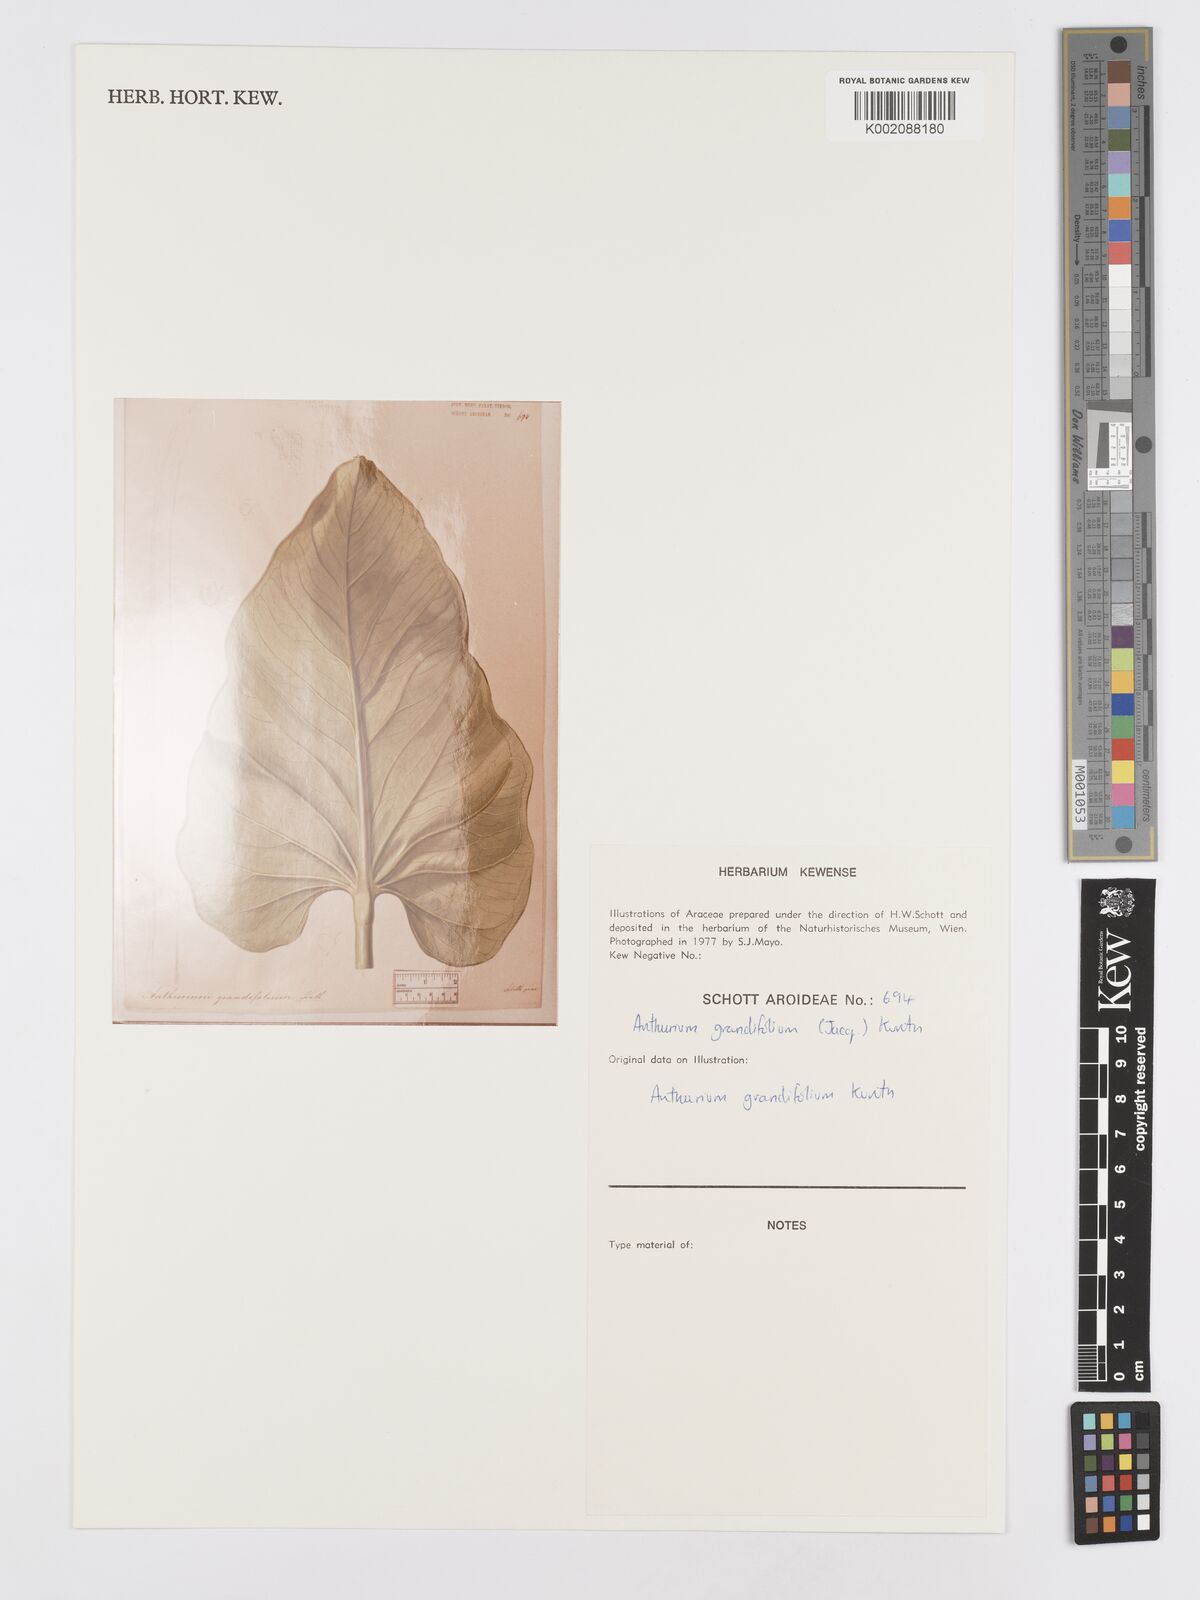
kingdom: Plantae
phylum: Tracheophyta
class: Liliopsida
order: Alismatales
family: Araceae
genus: Anthurium
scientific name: Anthurium grandifolium
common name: Monkey tail
